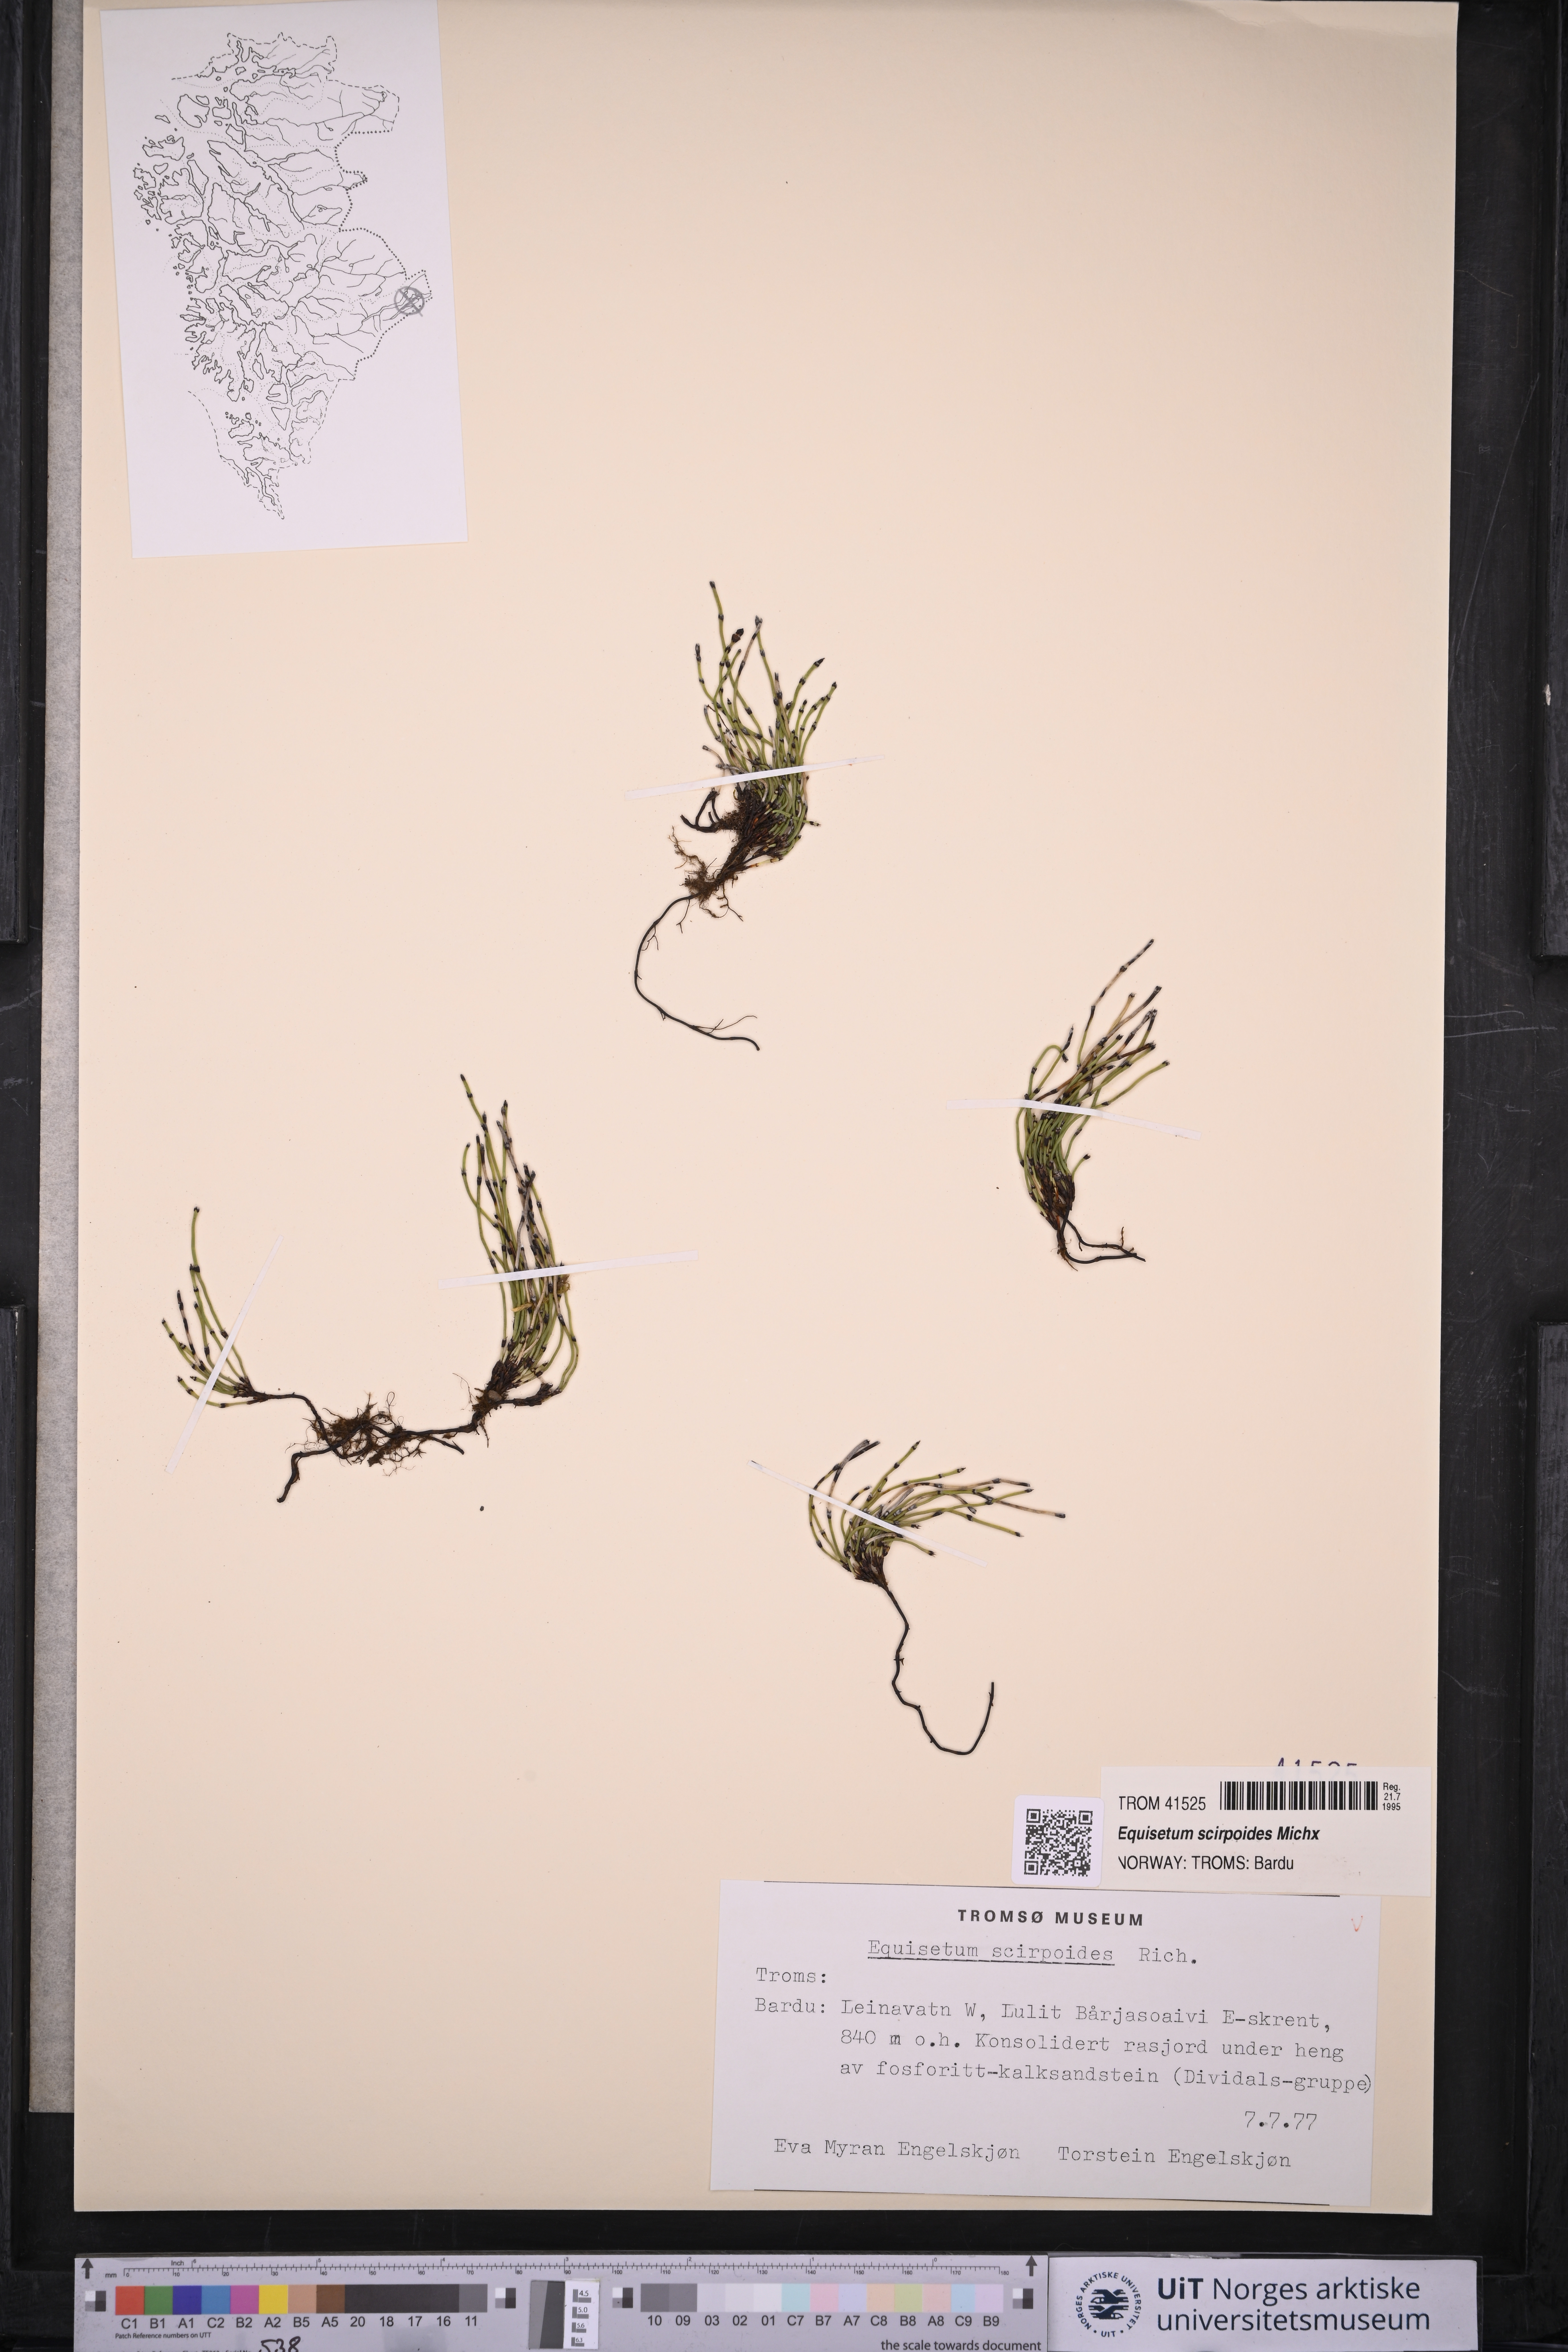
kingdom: Plantae
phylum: Tracheophyta
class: Polypodiopsida
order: Equisetales
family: Equisetaceae
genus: Equisetum
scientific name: Equisetum scirpoides
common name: Delicate horsetail
